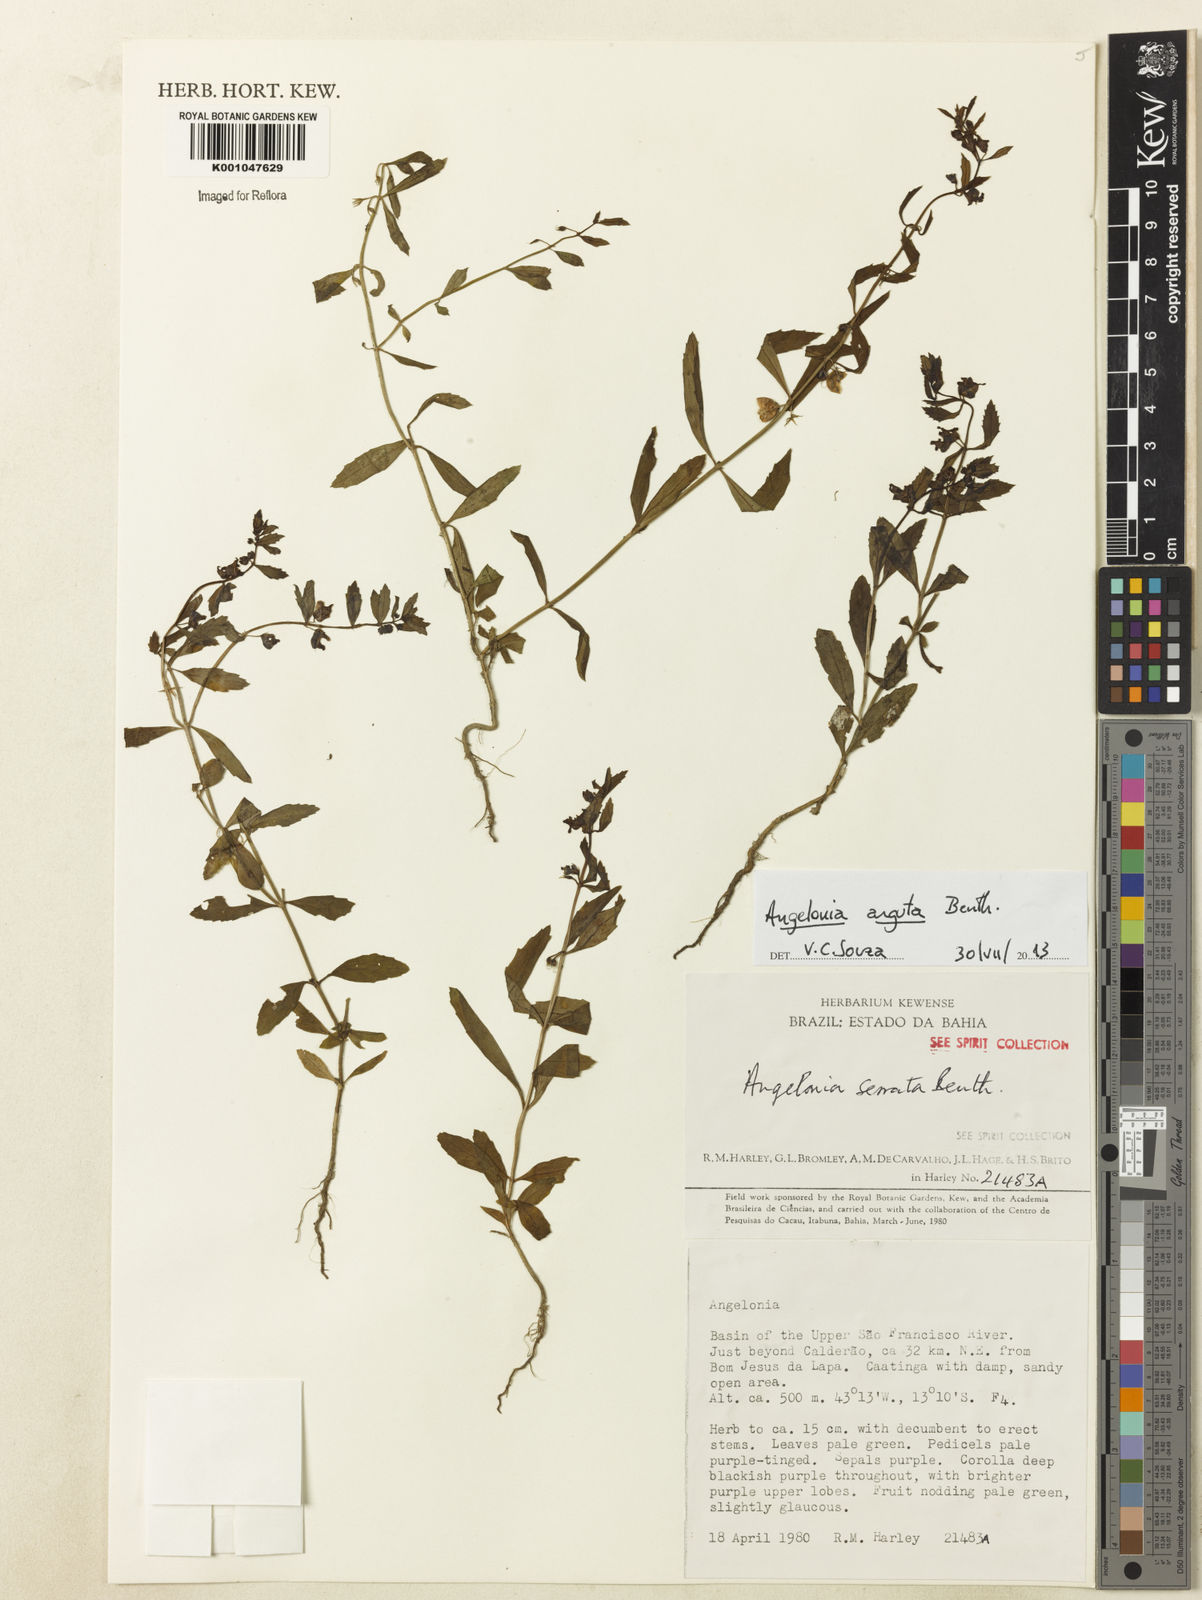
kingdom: Plantae
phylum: Tracheophyta
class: Magnoliopsida
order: Lamiales
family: Plantaginaceae
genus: Angelonia
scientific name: Angelonia arguta
